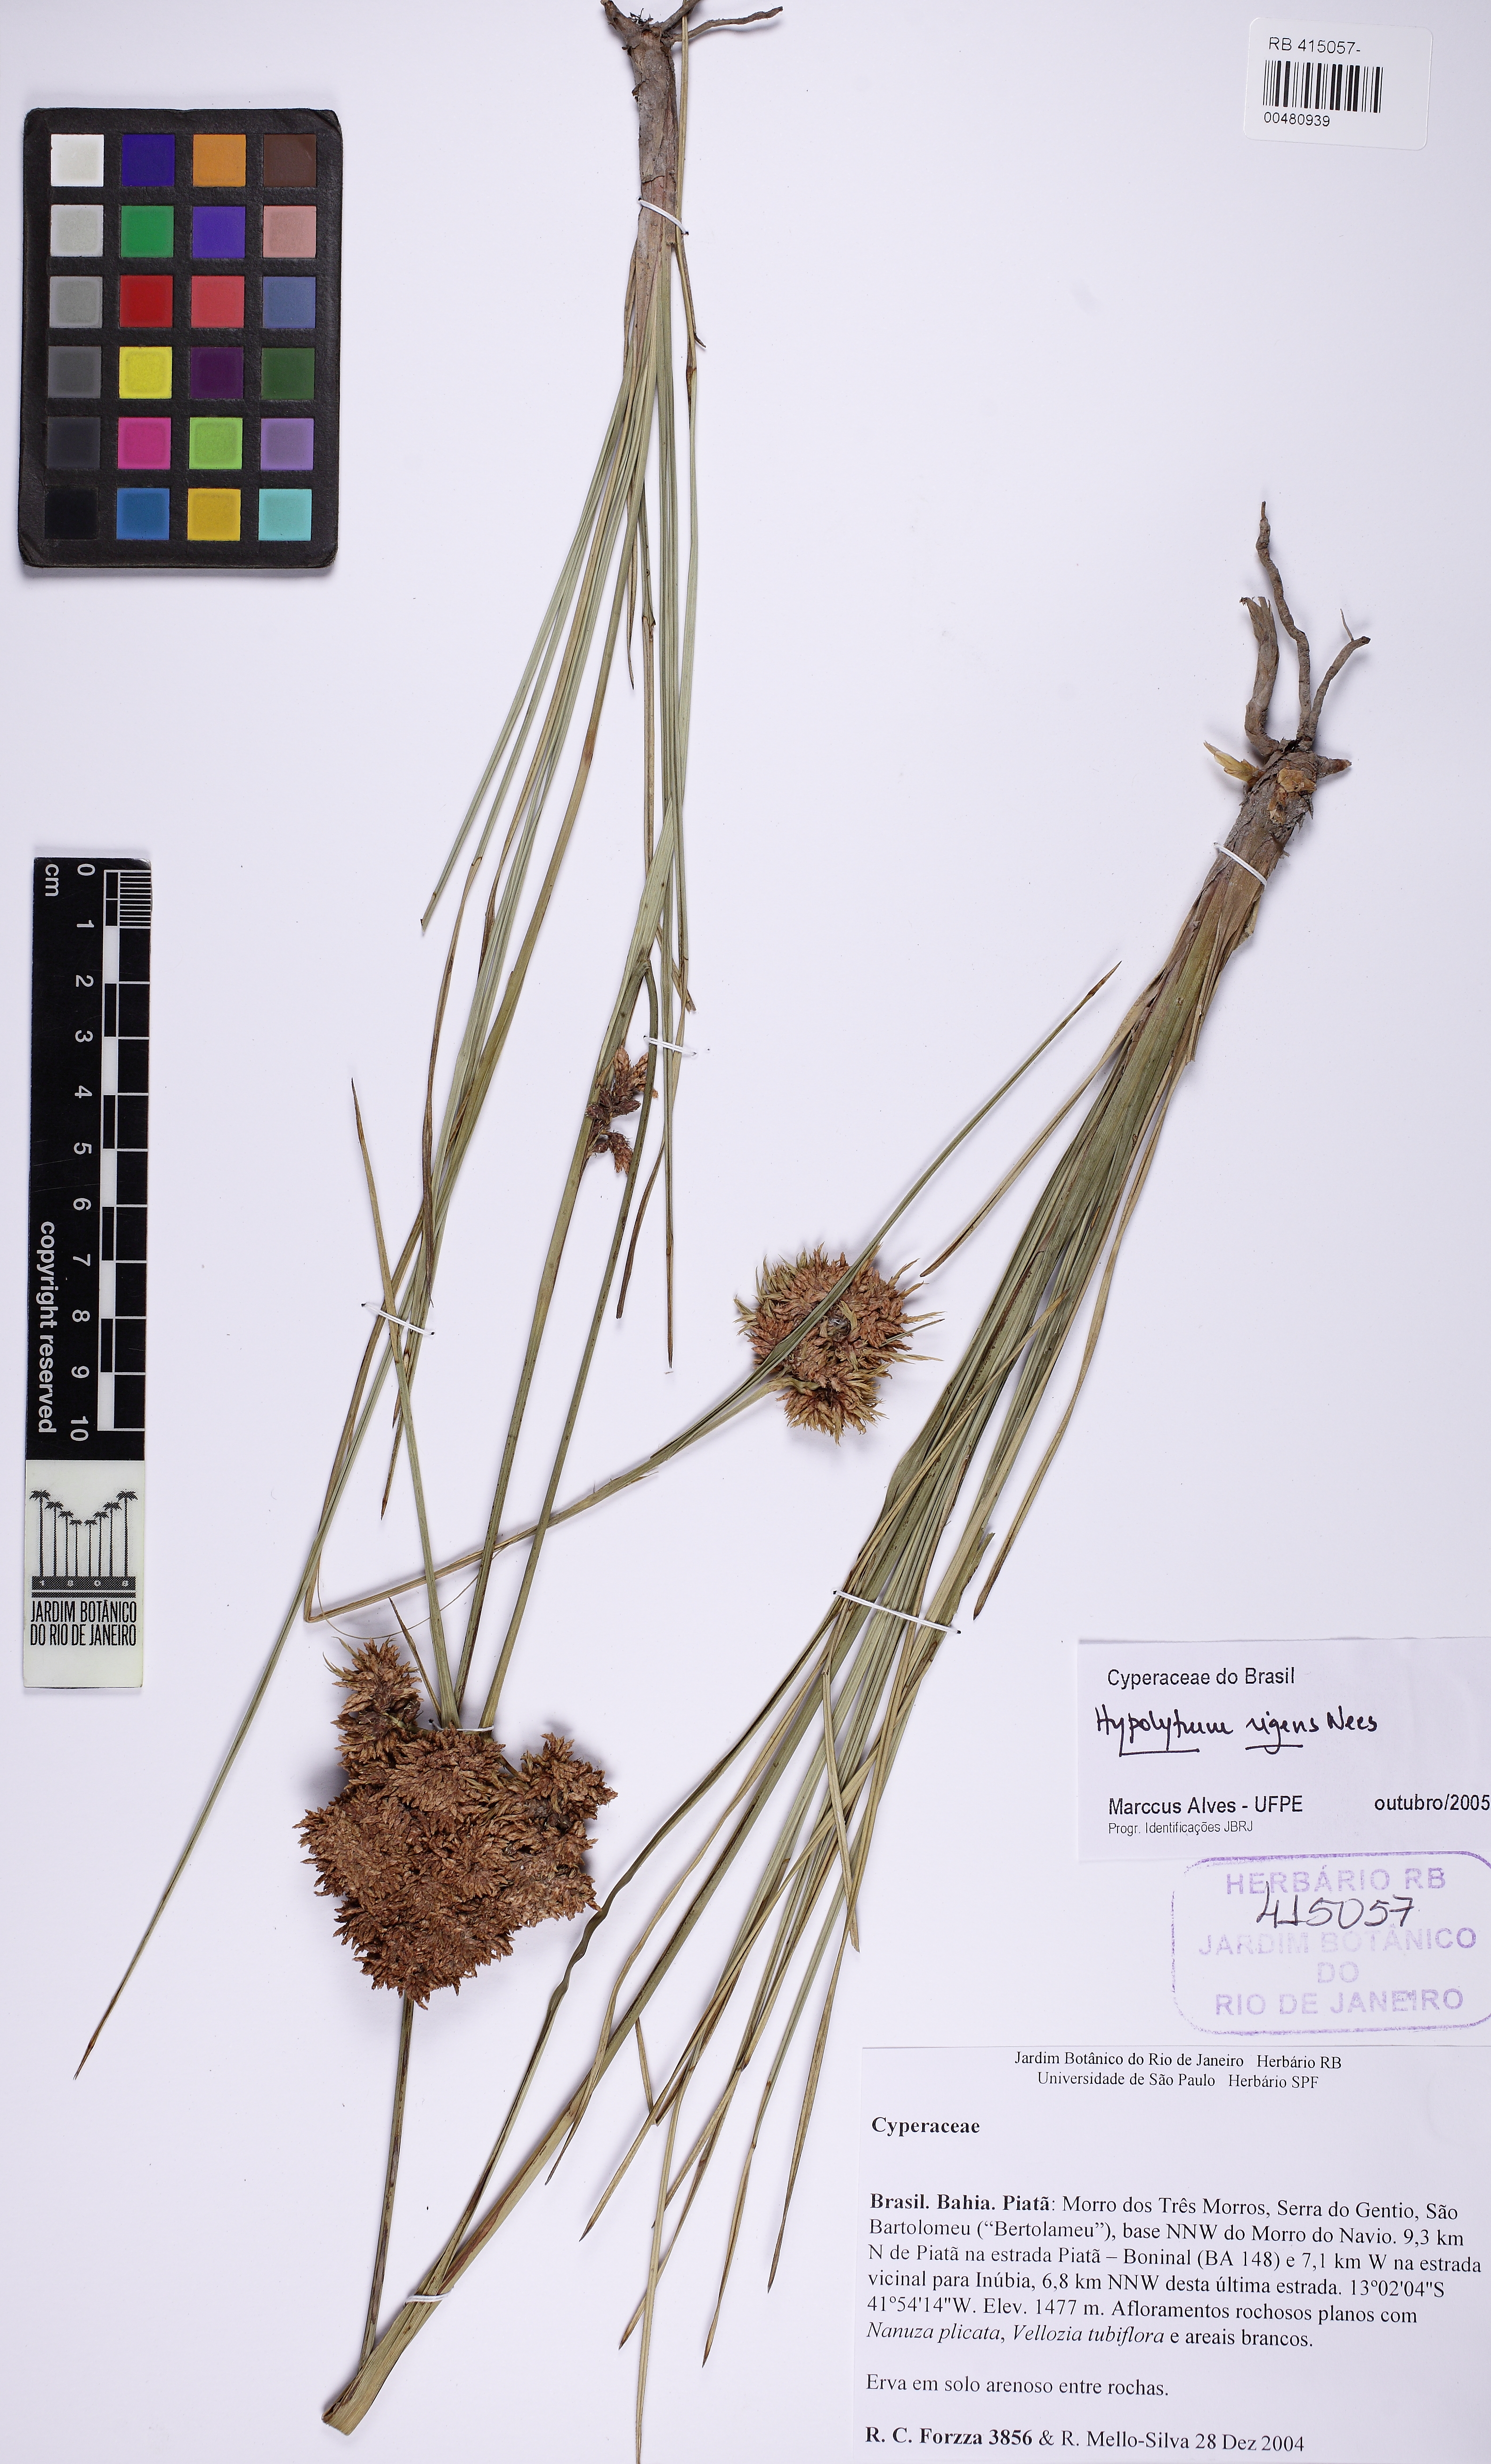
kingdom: Plantae
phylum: Tracheophyta
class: Liliopsida
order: Poales
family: Cyperaceae
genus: Hypolytrum
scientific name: Hypolytrum rigens
